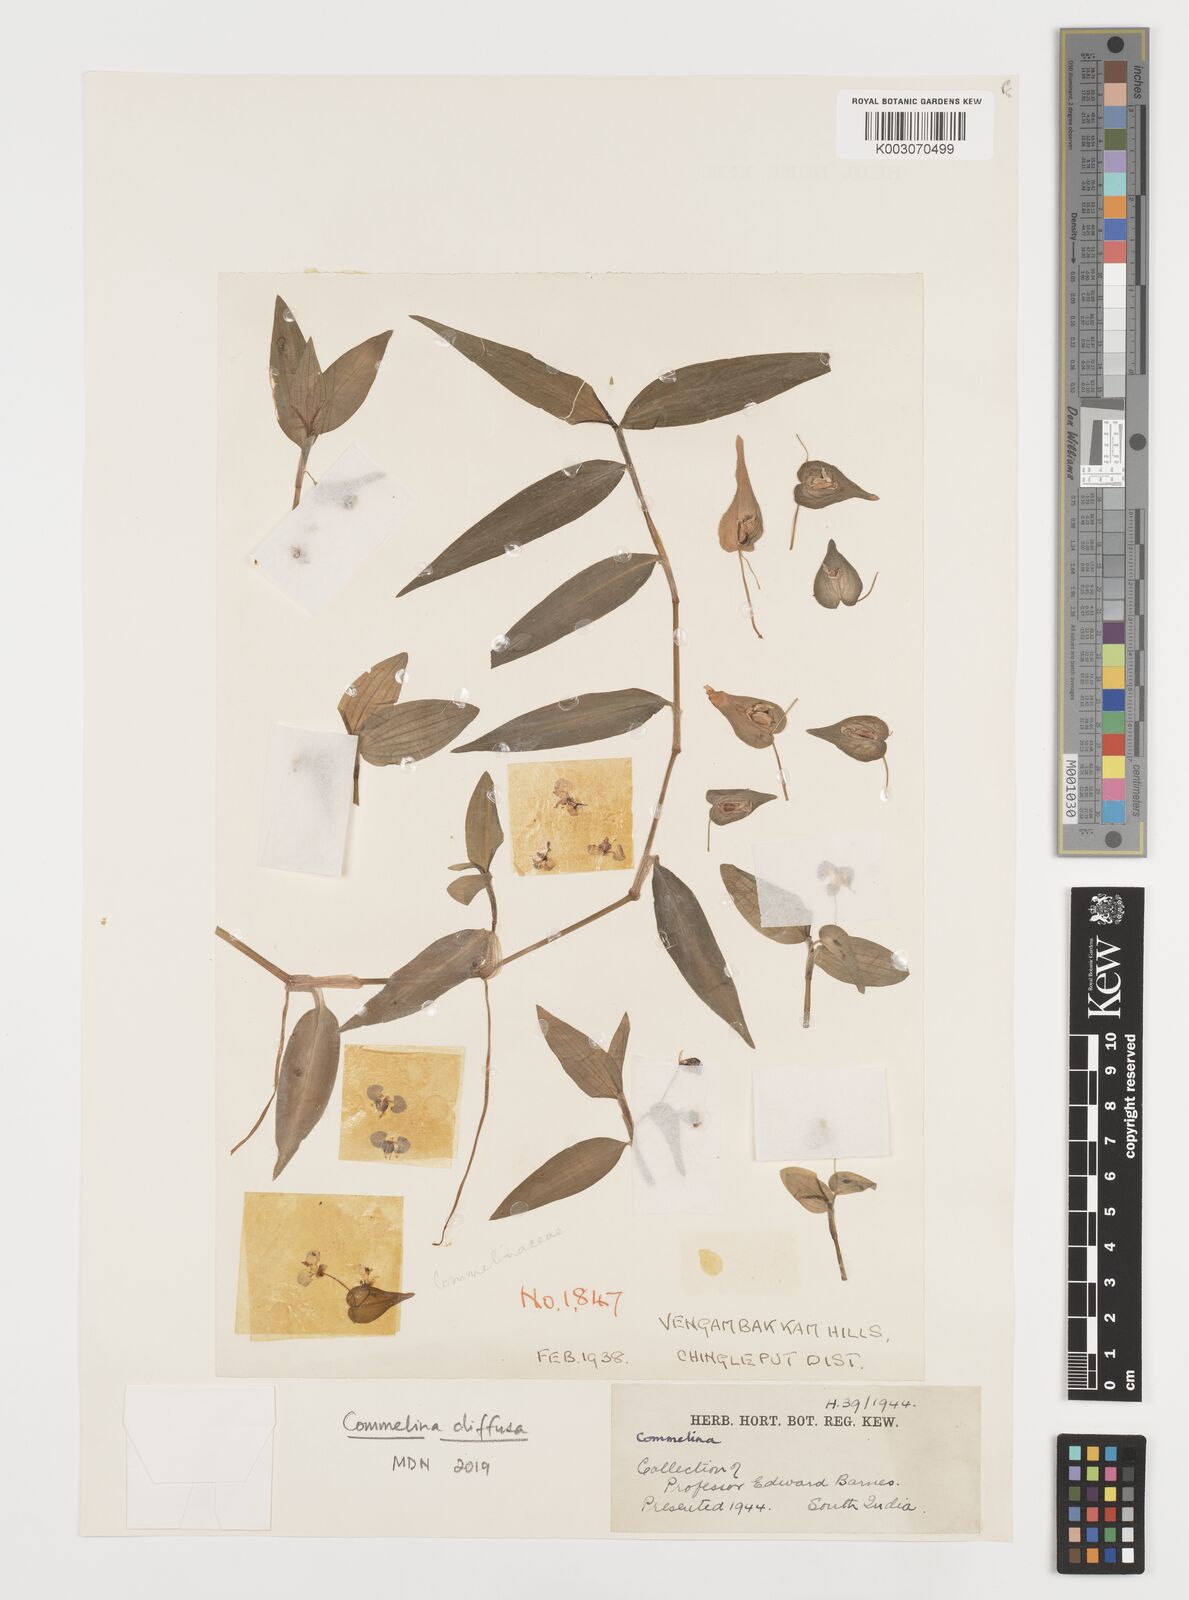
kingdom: Plantae
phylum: Tracheophyta
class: Liliopsida
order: Commelinales
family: Commelinaceae
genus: Commelina
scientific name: Commelina
